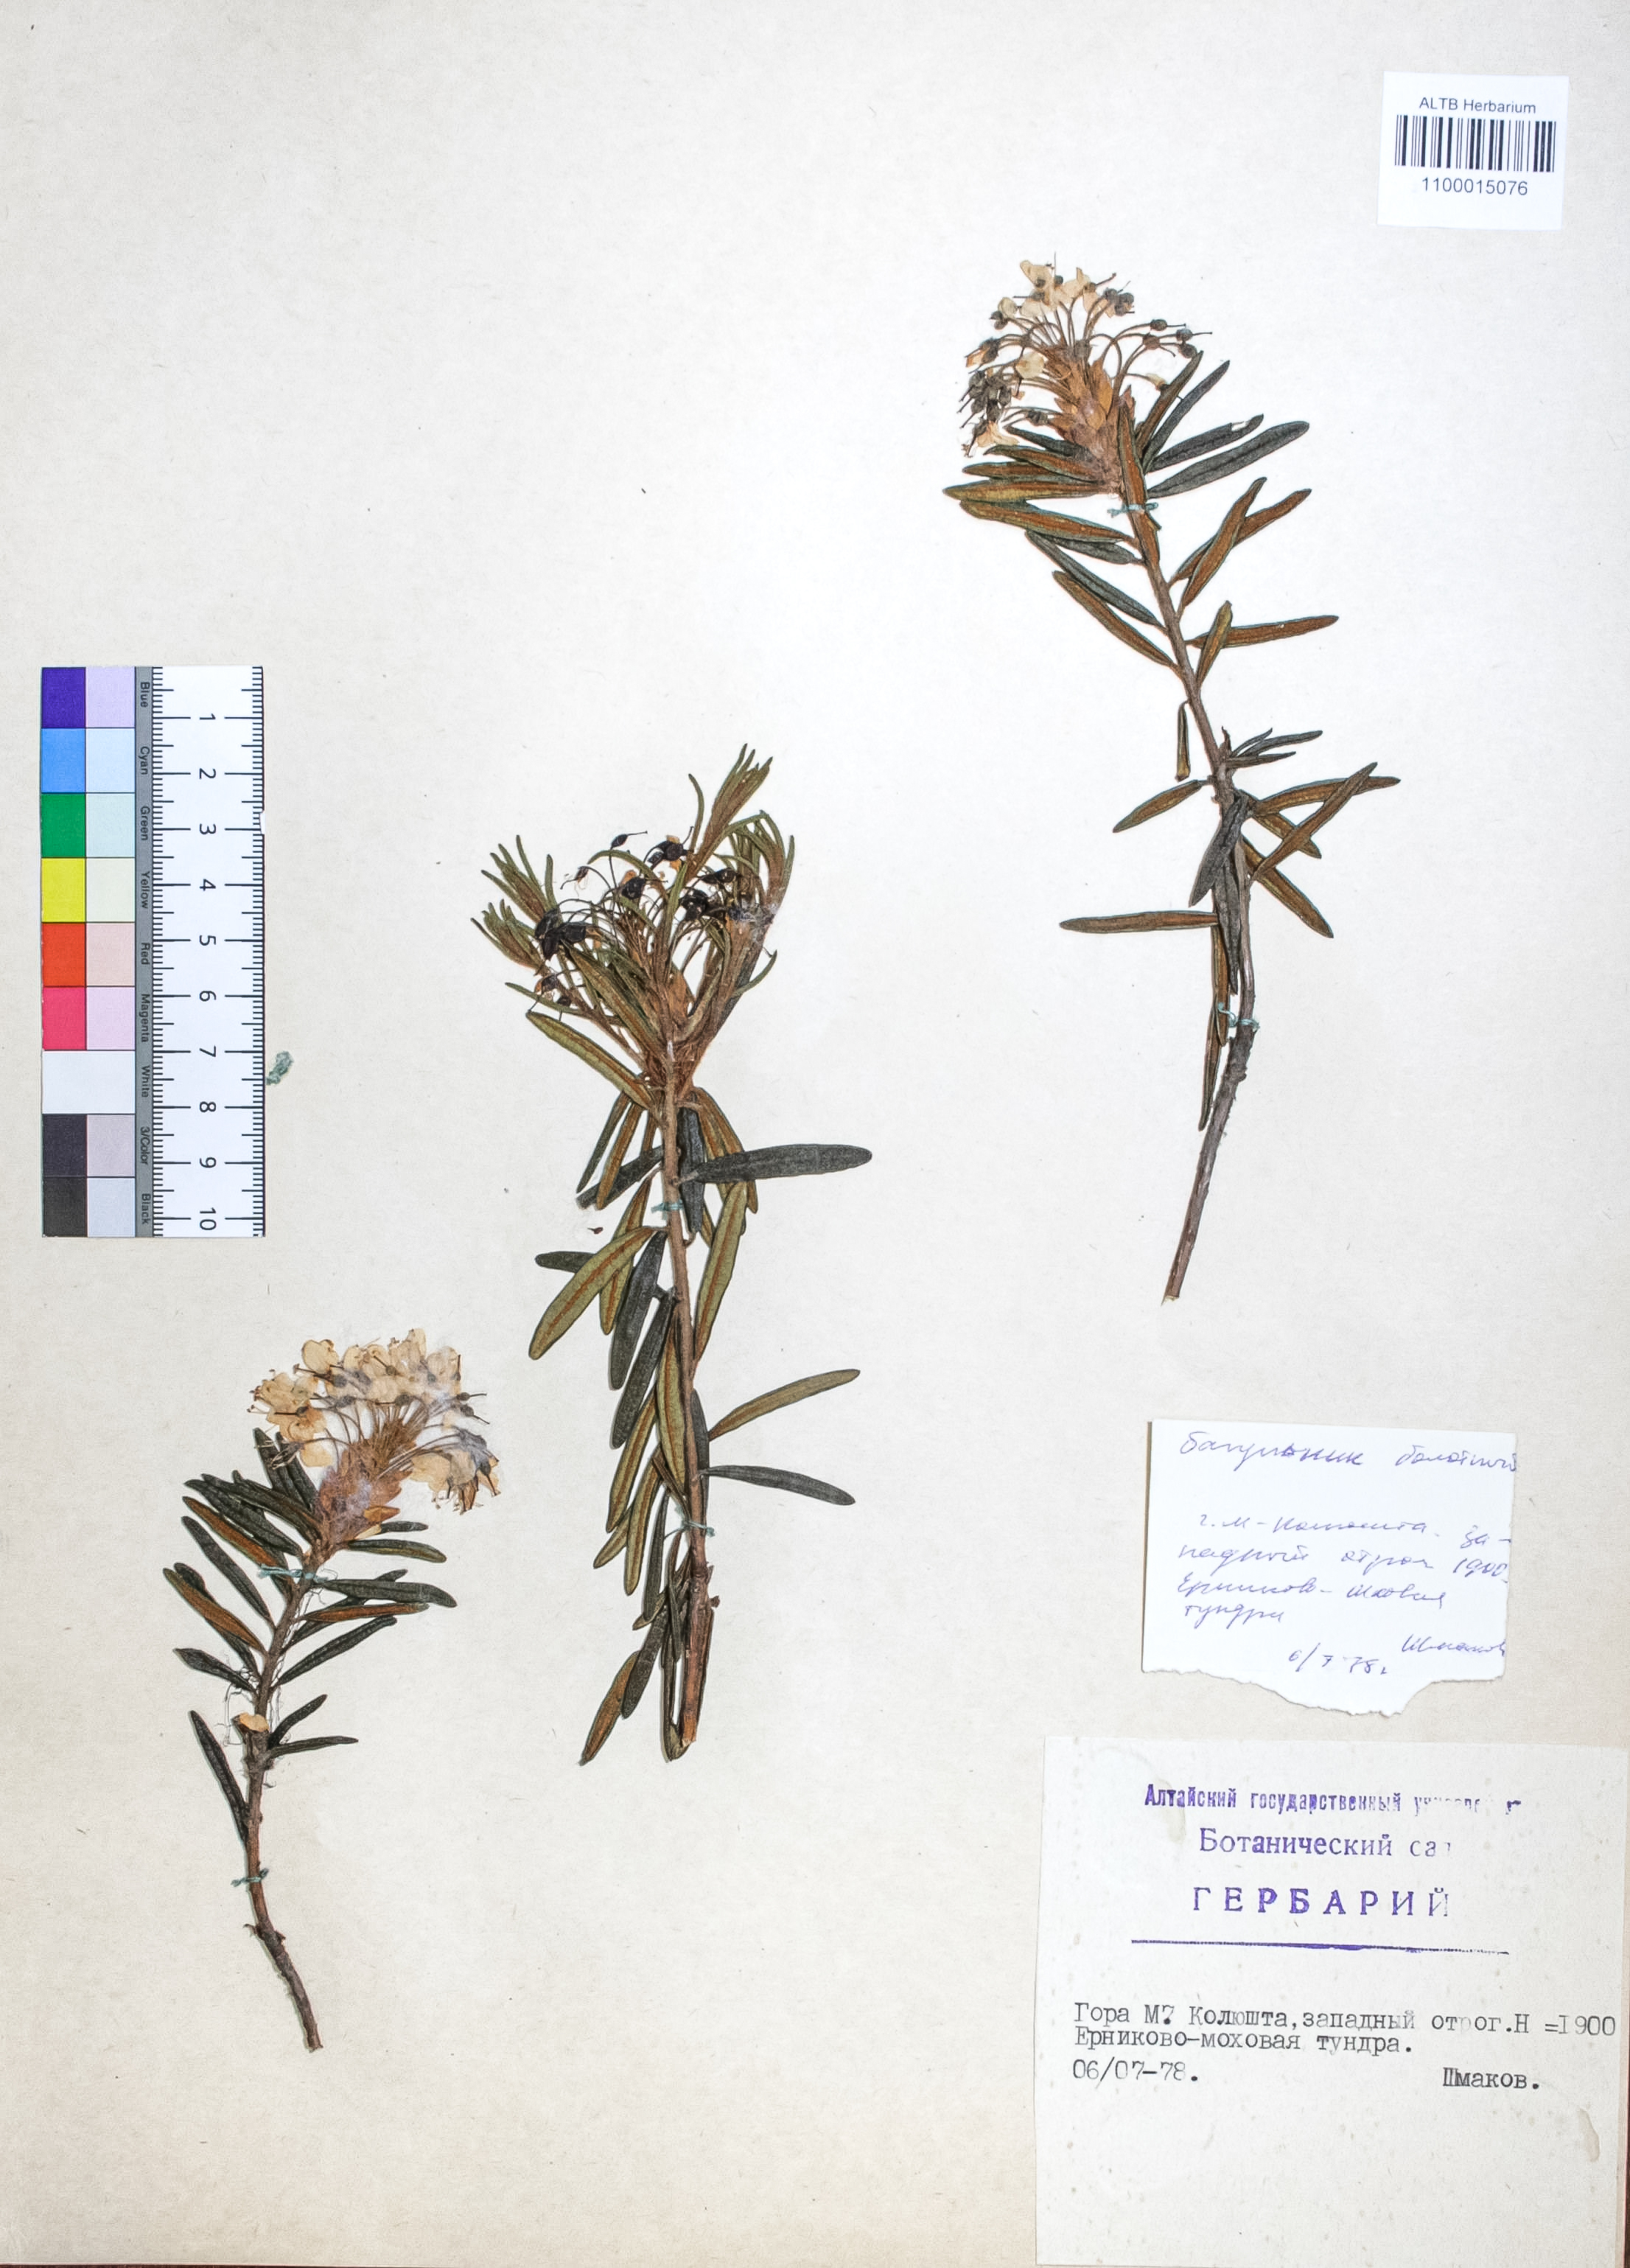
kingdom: Plantae
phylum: Tracheophyta
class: Magnoliopsida
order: Ericales
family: Ericaceae
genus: Rhododendron
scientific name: Rhododendron tomentosum
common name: Marsh labrador tea
